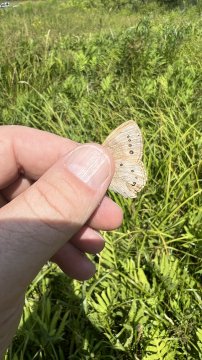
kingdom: Animalia
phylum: Arthropoda
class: Insecta
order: Lepidoptera
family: Nymphalidae
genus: Lethe
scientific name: Lethe eurydice
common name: Eyed Brown
